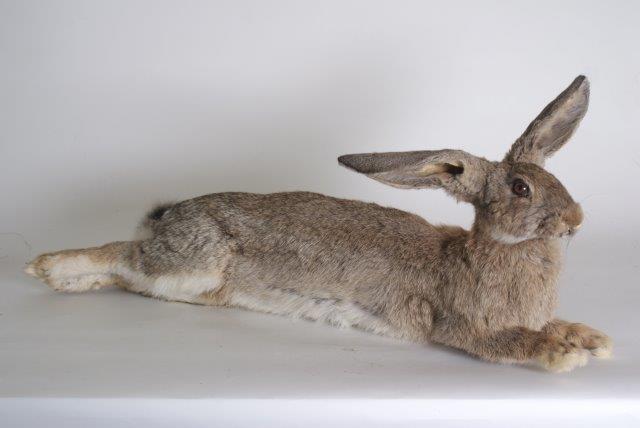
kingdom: Animalia
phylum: Chordata
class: Mammalia
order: Lagomorpha
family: Leporidae
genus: Oryctolagus
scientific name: Oryctolagus cuniculus
